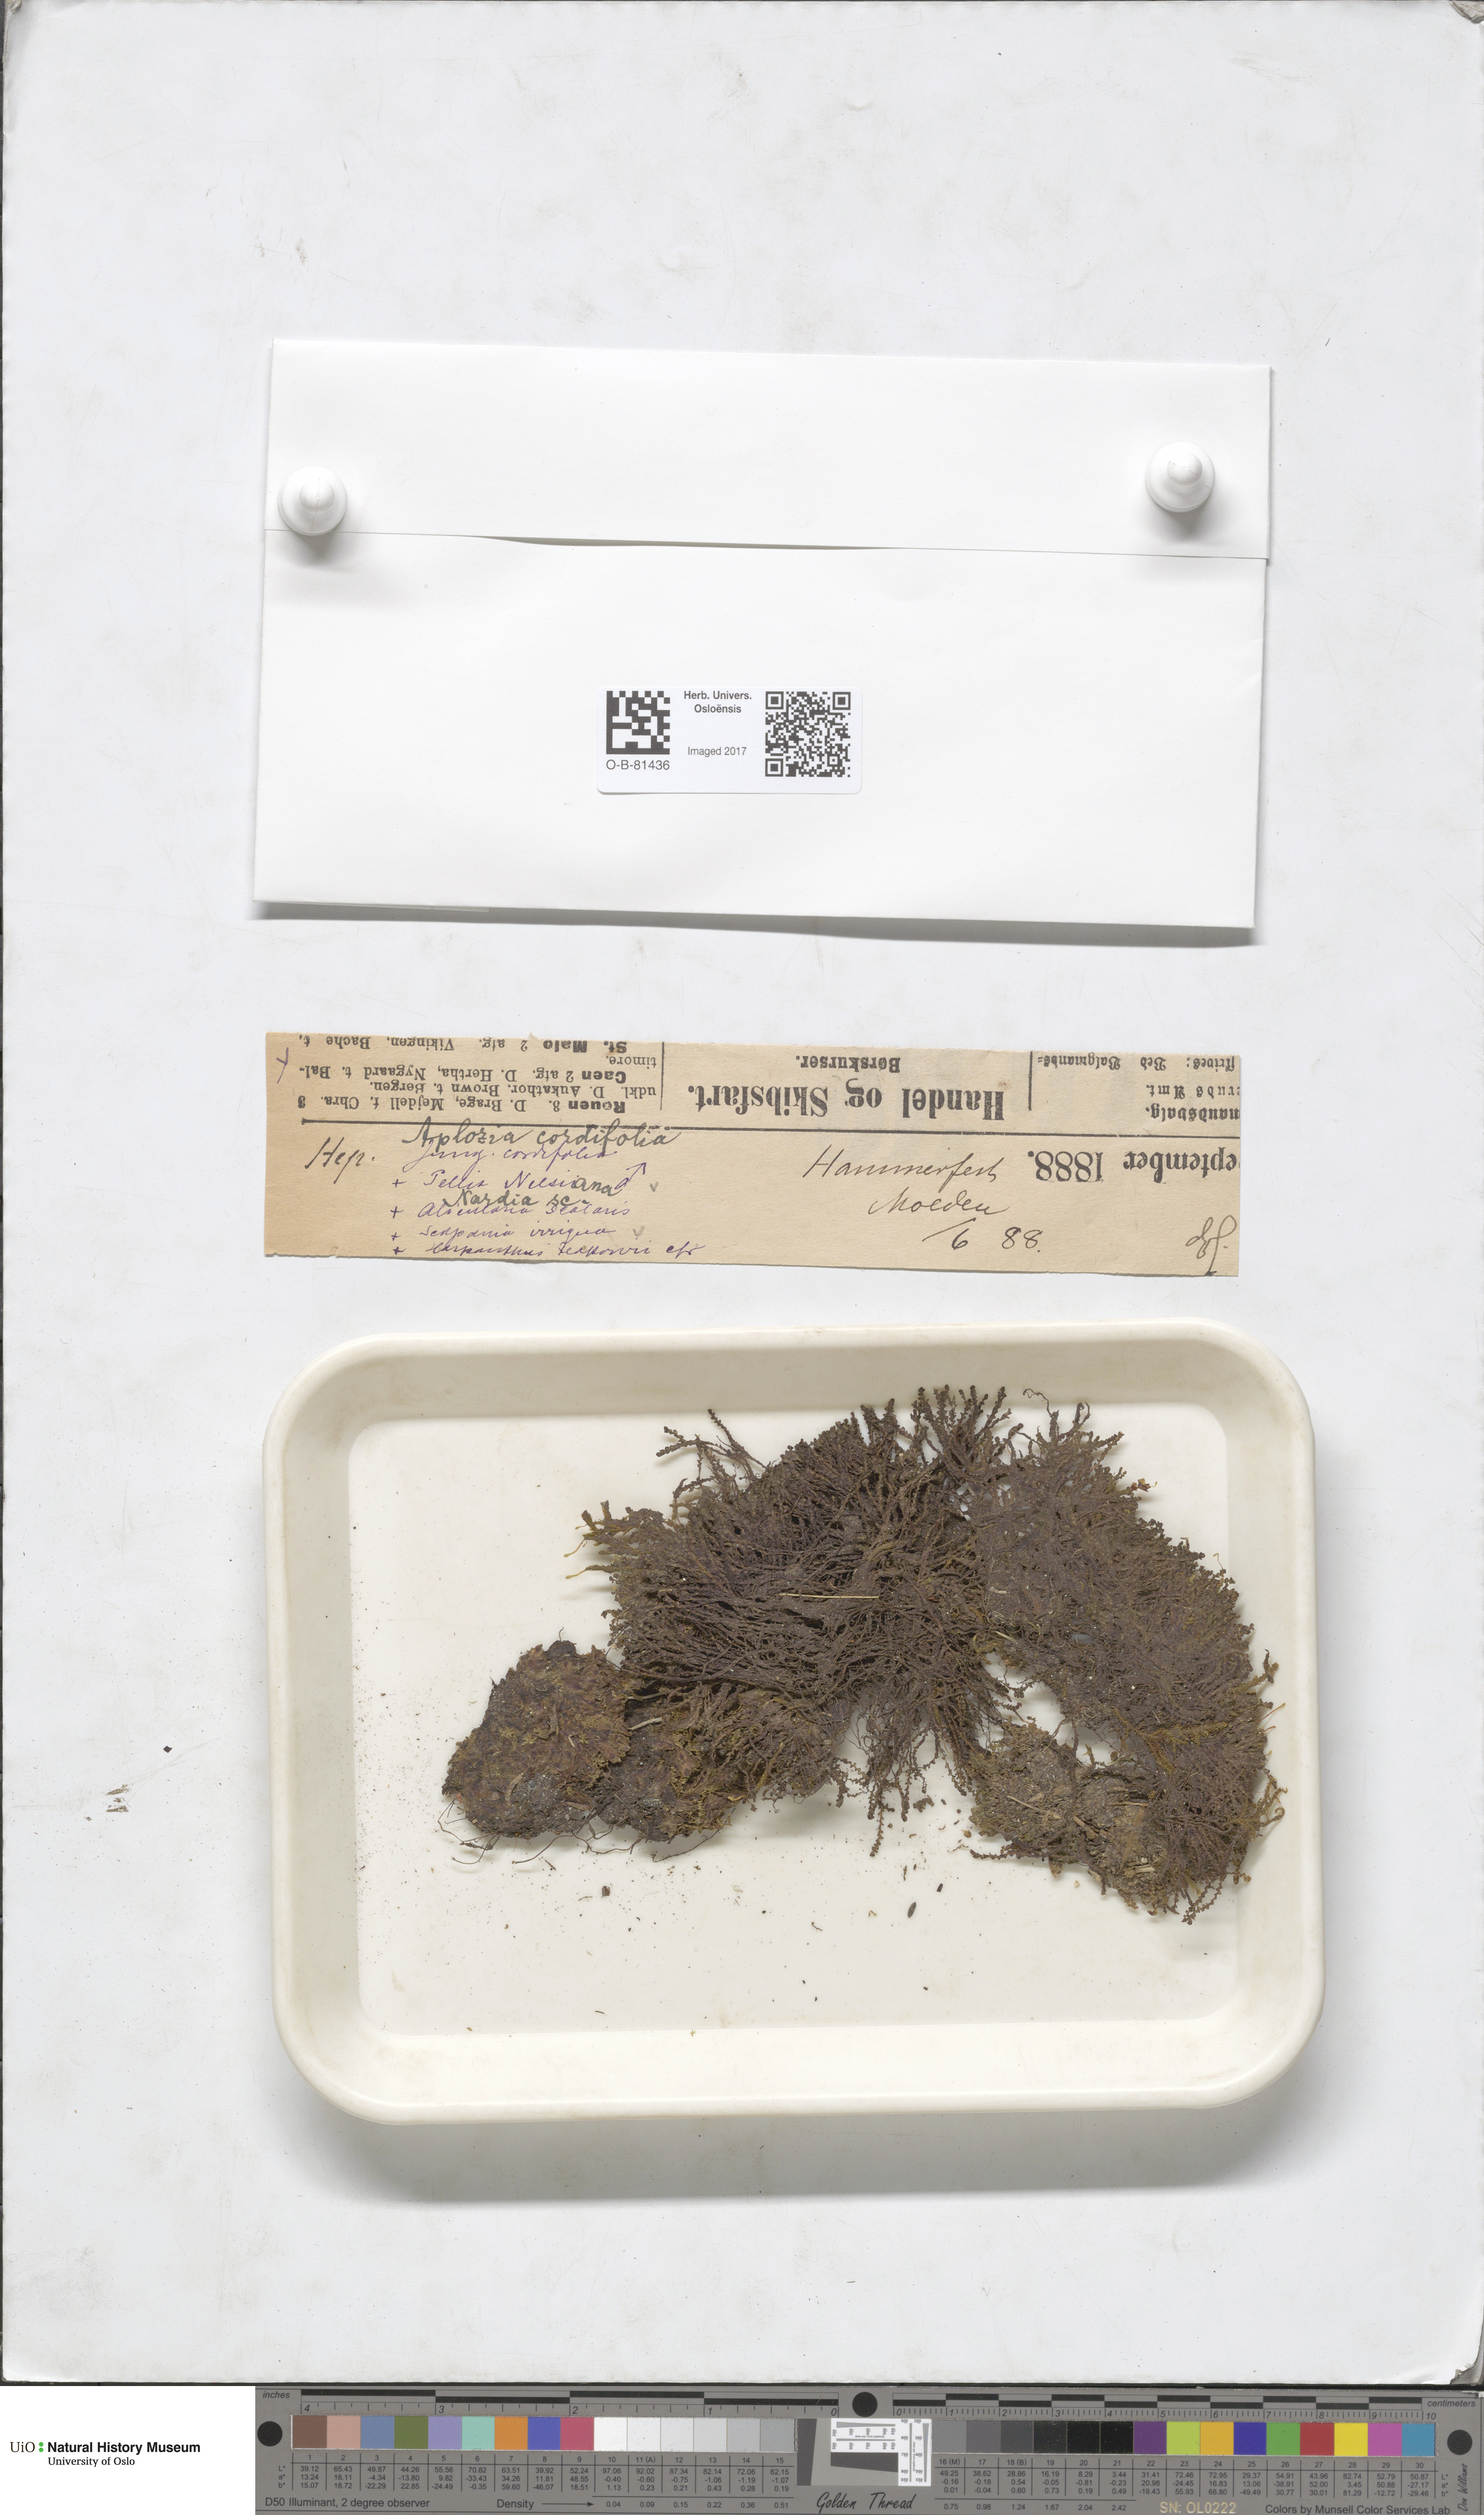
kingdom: Plantae
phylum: Marchantiophyta
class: Jungermanniopsida
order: Pelliales
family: Pelliaceae
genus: Pellia
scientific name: Pellia neesiana
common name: Nees  pellia
